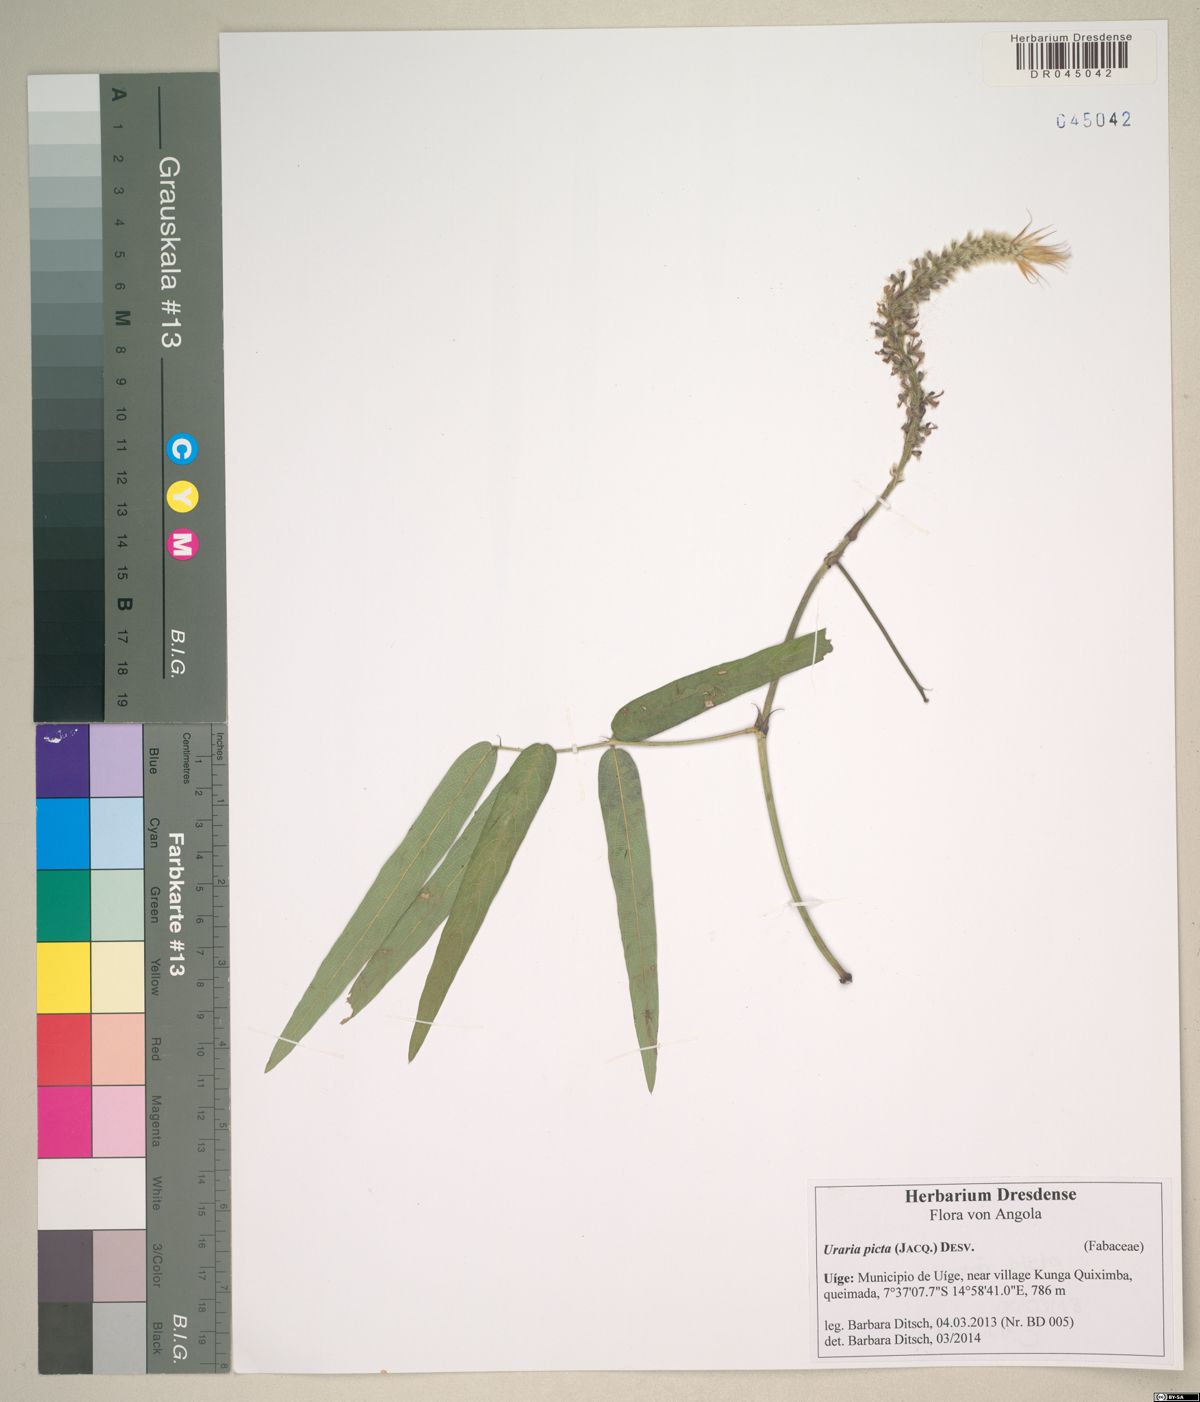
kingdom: Plantae
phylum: Tracheophyta
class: Magnoliopsida
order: Fabales
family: Fabaceae
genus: Uraria
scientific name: Uraria picta
